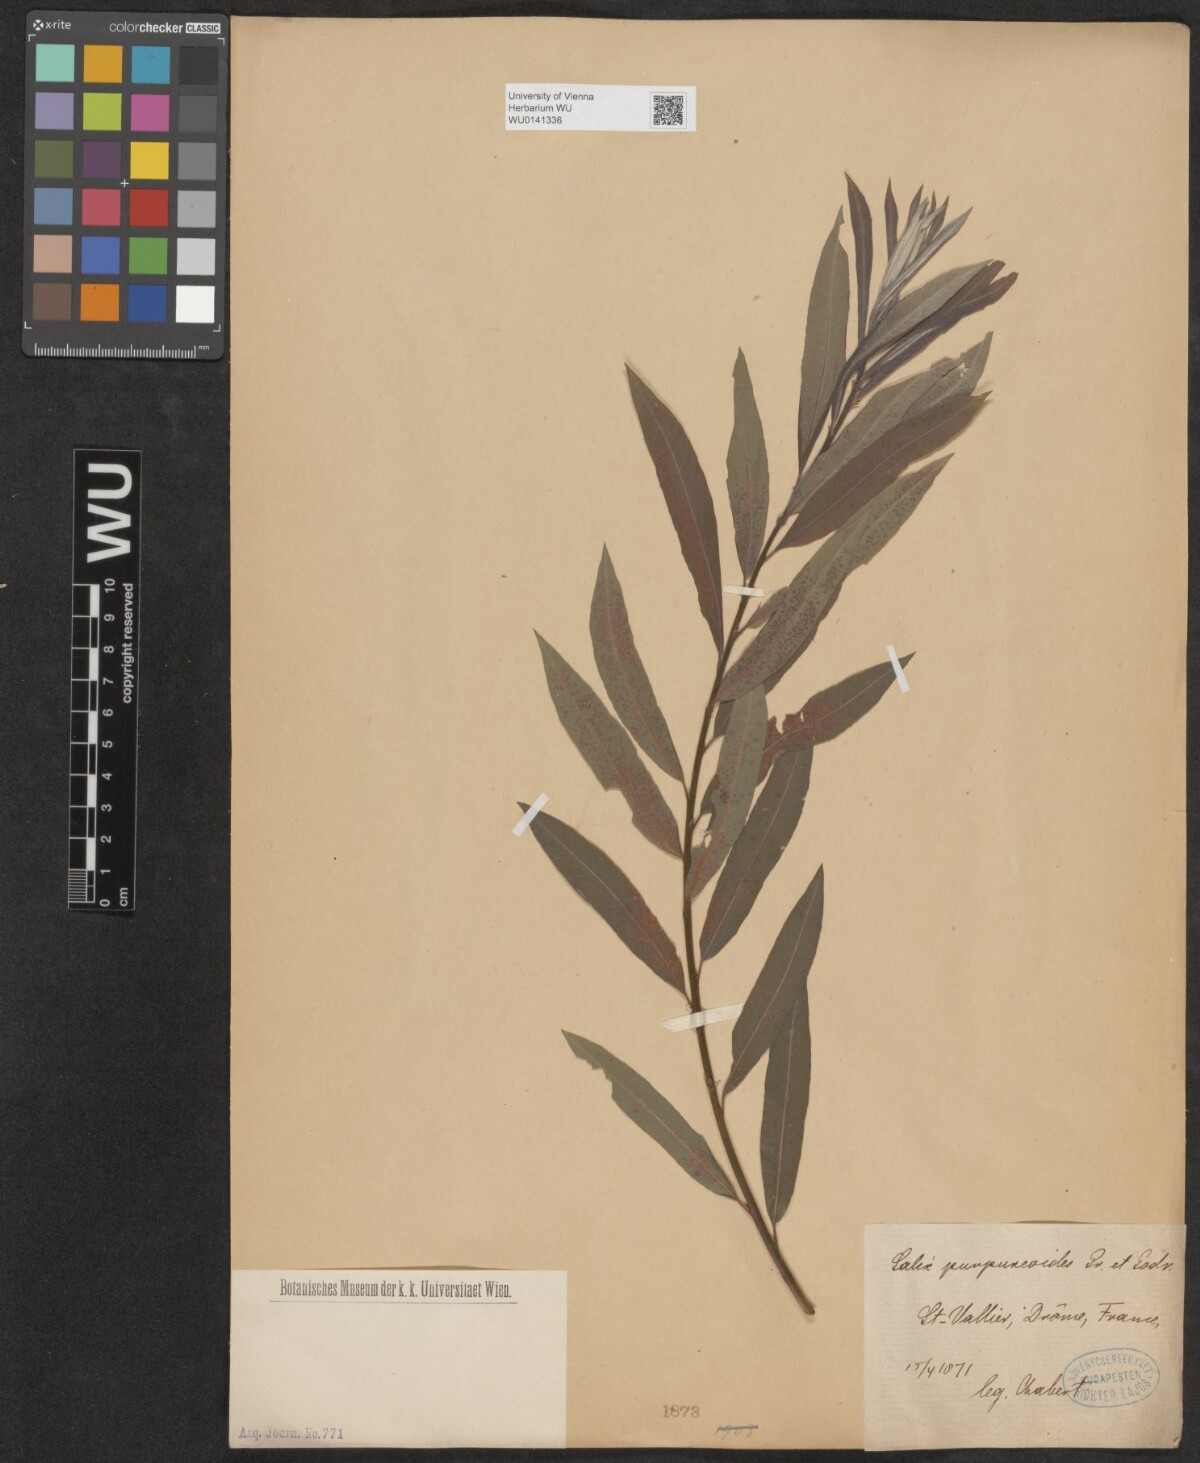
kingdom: Plantae
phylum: Tracheophyta
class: Magnoliopsida
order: Malpighiales
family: Salicaceae
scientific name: Salicaceae
